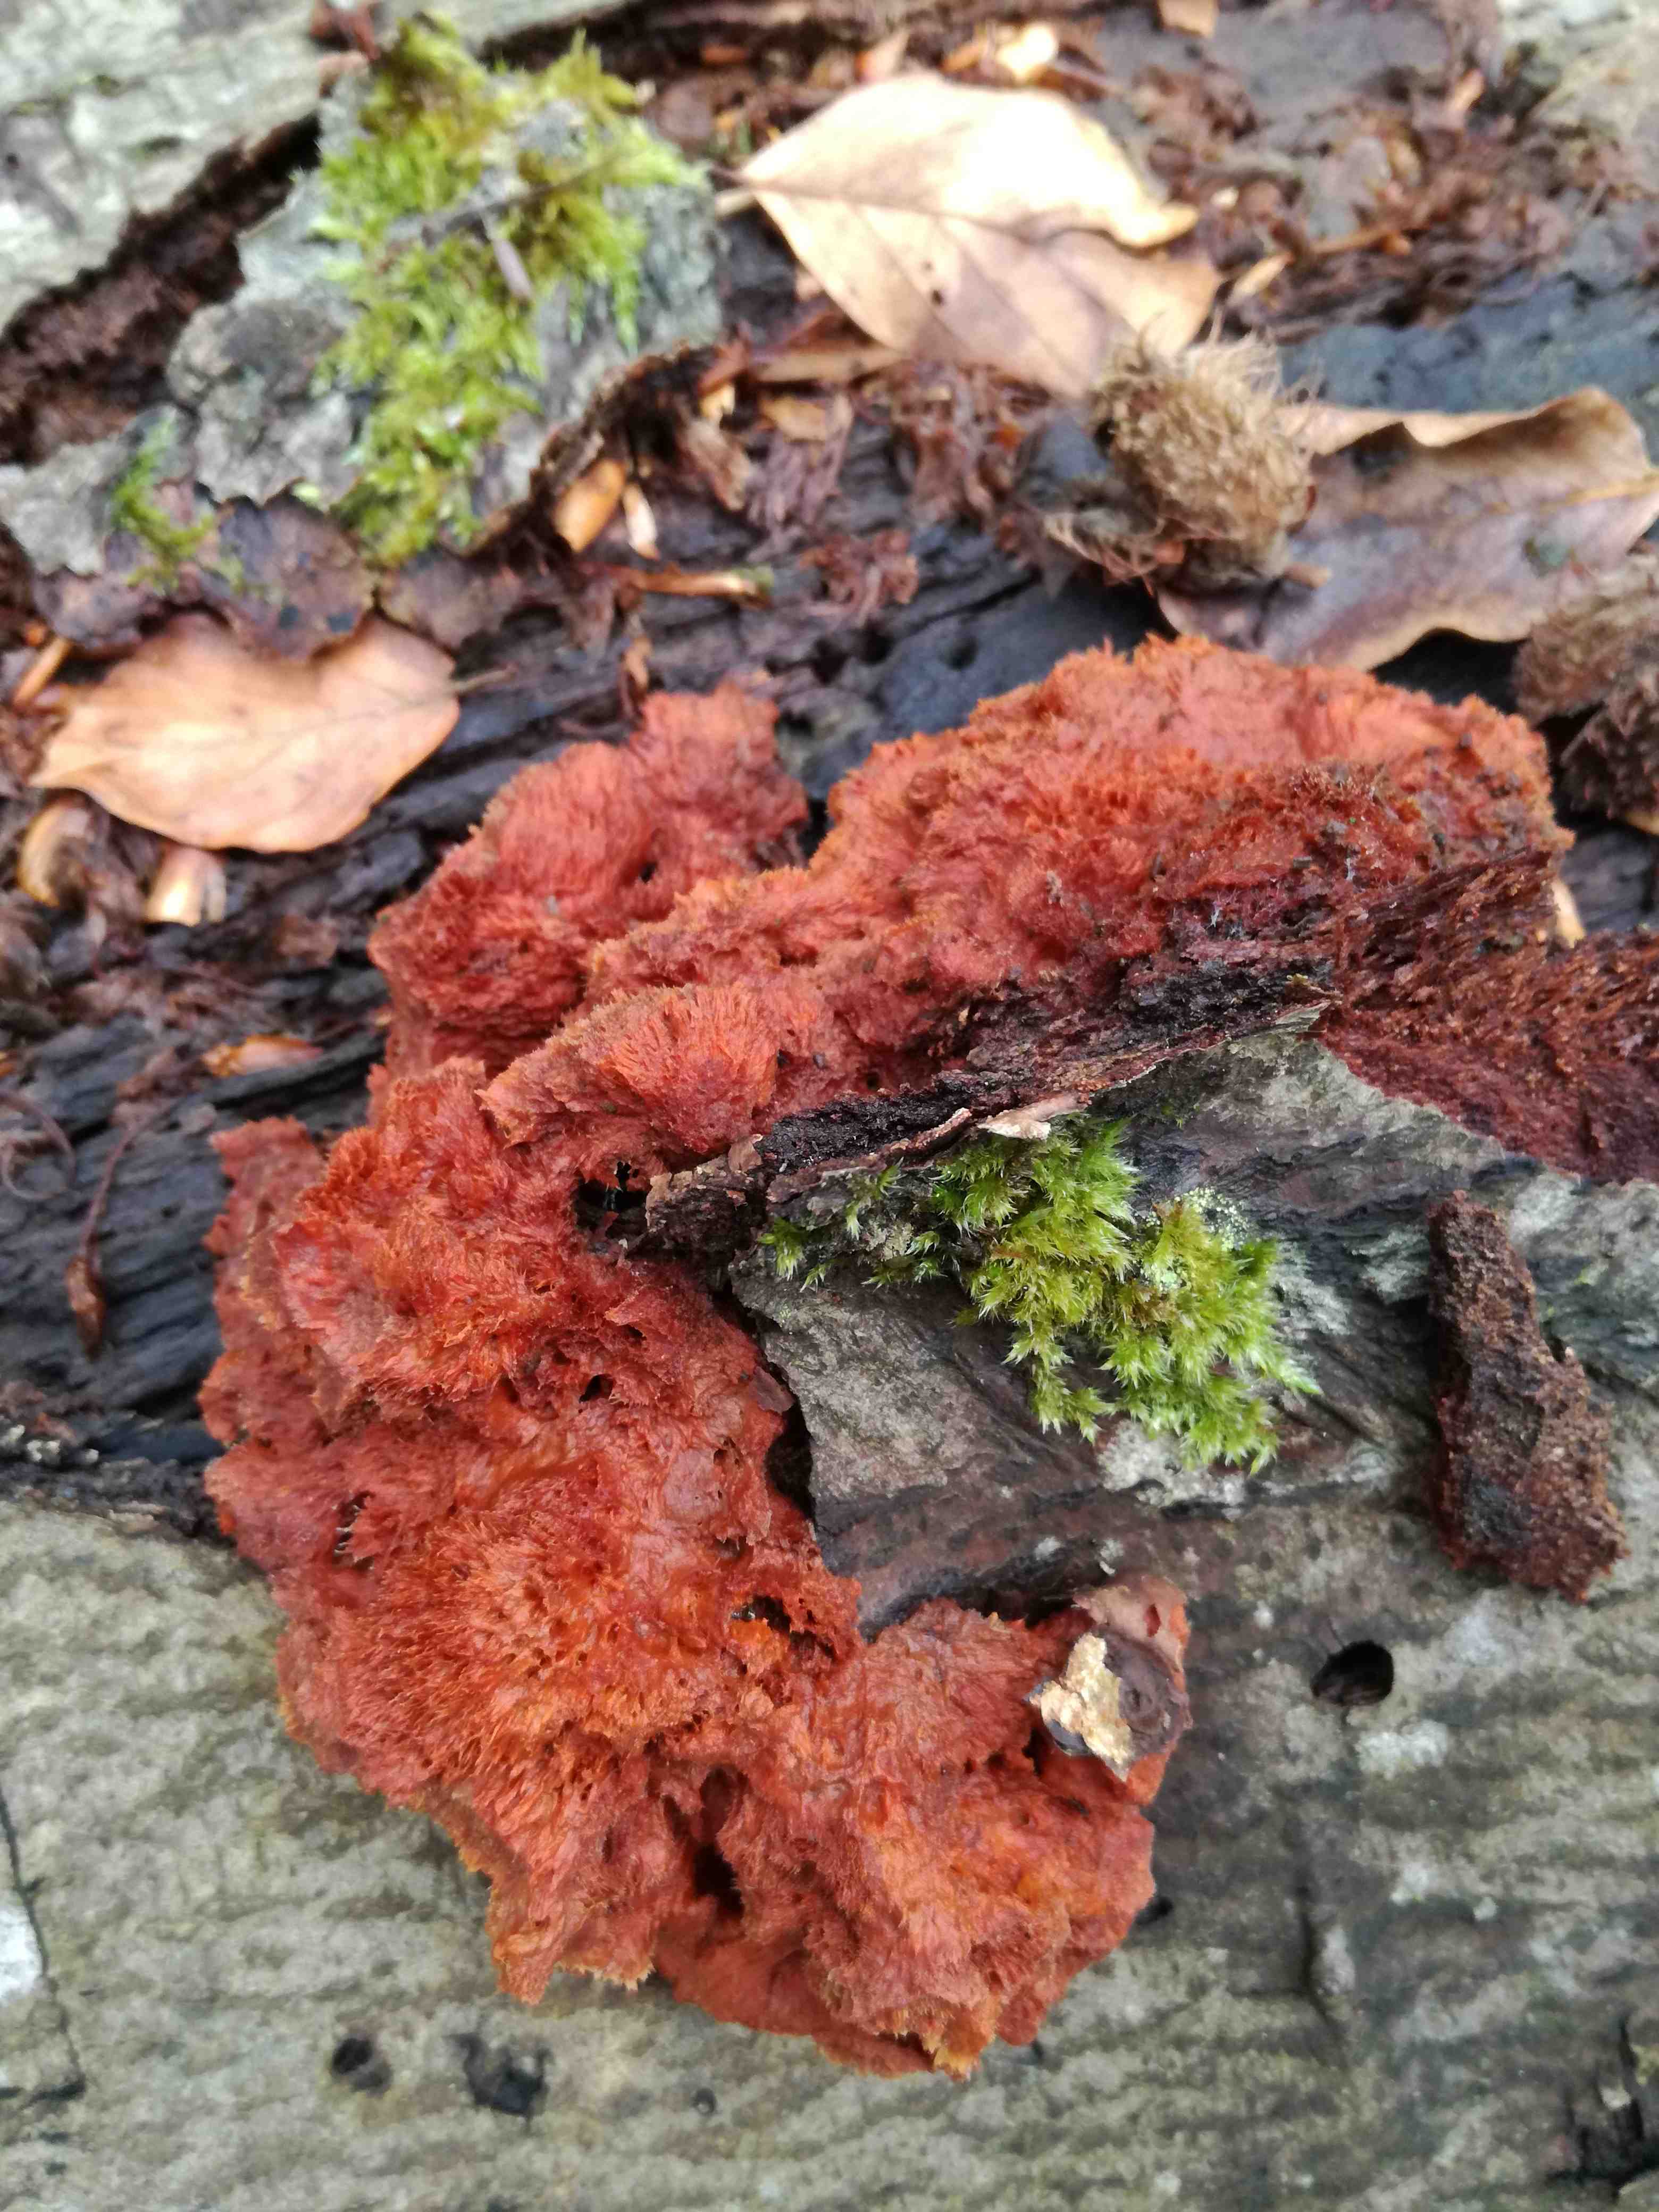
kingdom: Fungi
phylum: Basidiomycota
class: Agaricomycetes
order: Polyporales
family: Pycnoporellaceae
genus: Pycnoporellus
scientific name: Pycnoporellus fulgens
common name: flammeporesvamp
